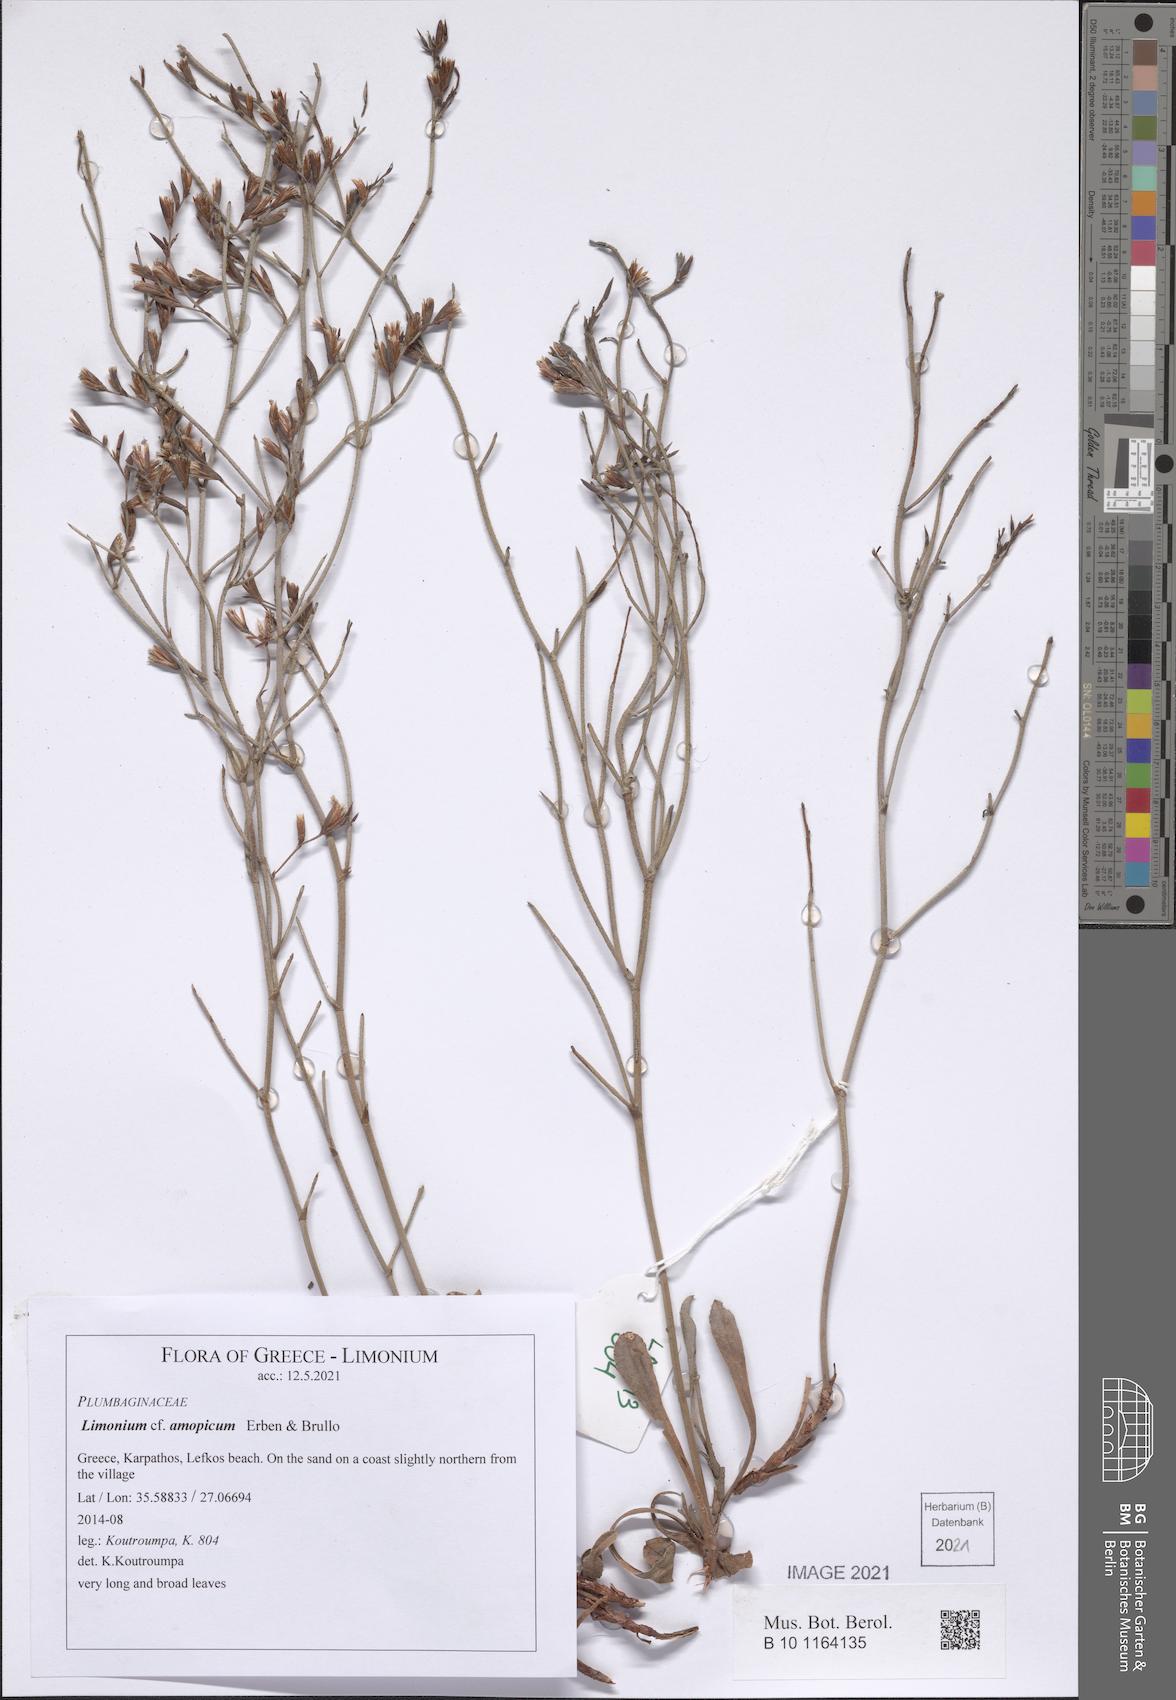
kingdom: Plantae
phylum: Tracheophyta
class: Magnoliopsida
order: Caryophyllales
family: Plumbaginaceae
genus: Limonium
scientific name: Limonium amopicum
